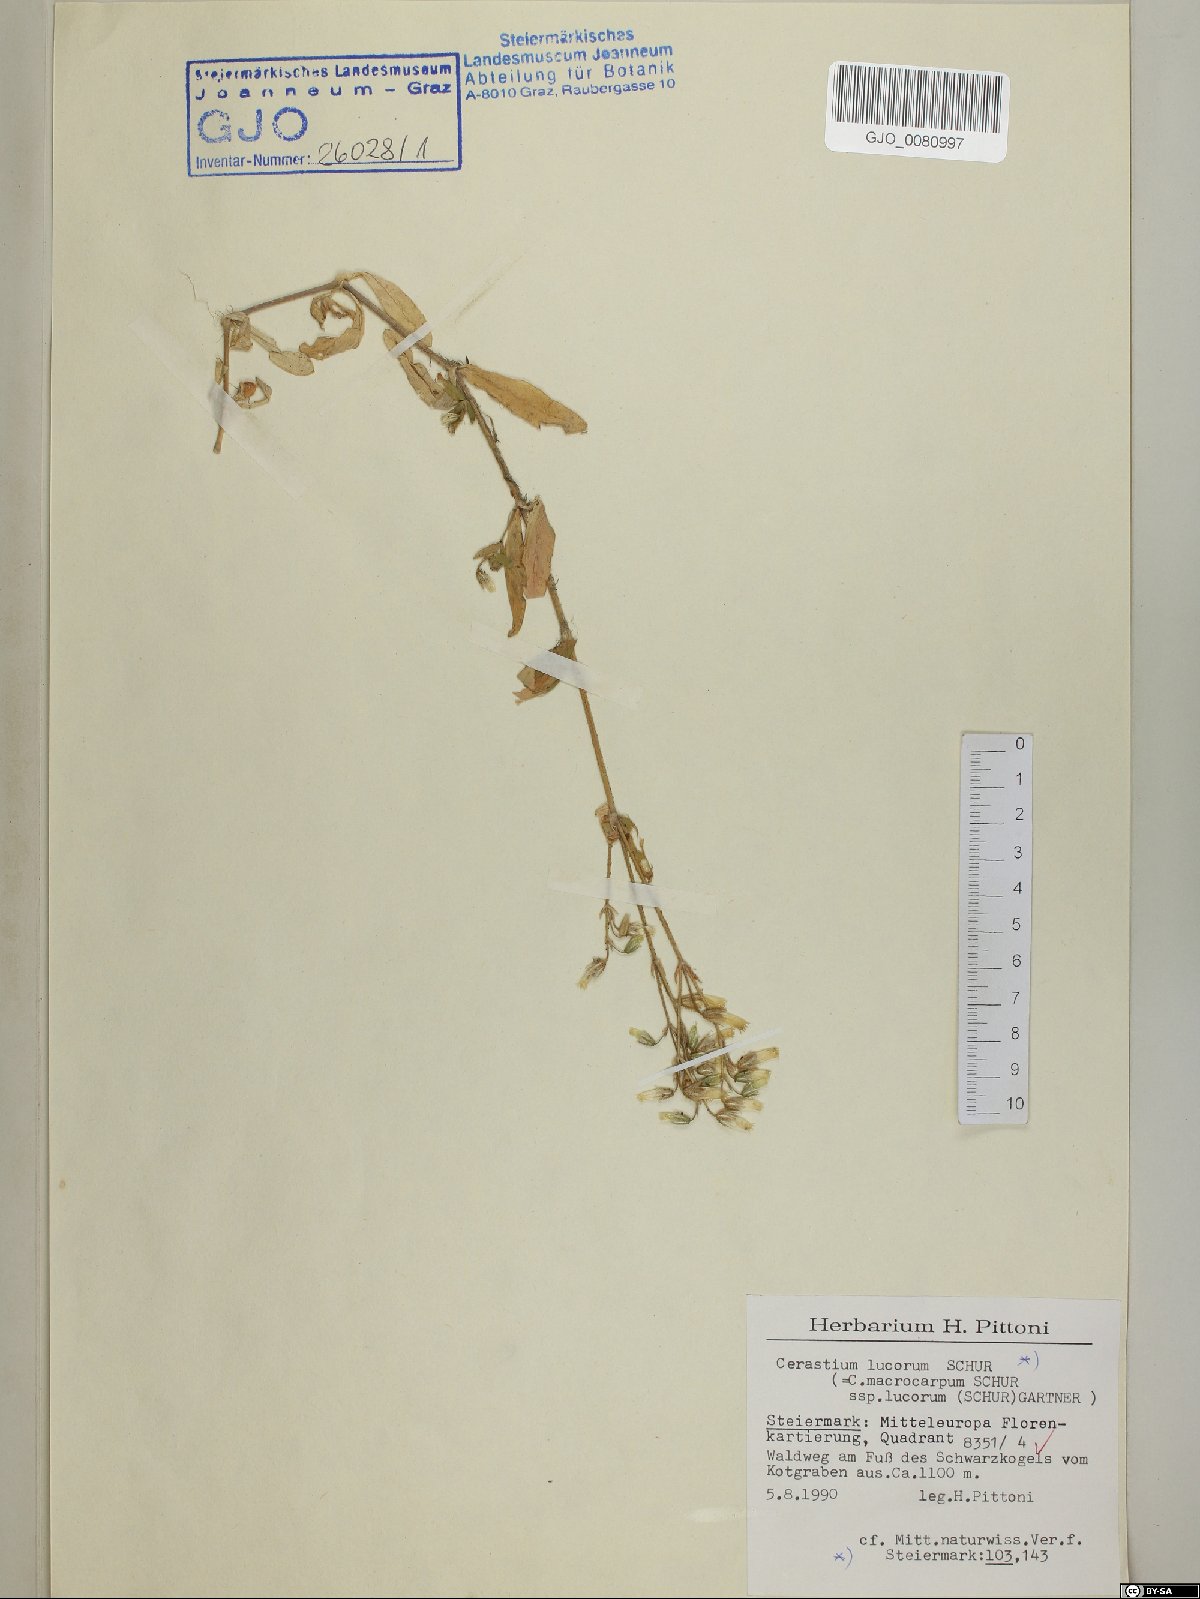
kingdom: Plantae
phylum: Tracheophyta
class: Magnoliopsida
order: Caryophyllales
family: Caryophyllaceae
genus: Cerastium
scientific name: Cerastium lucorum
